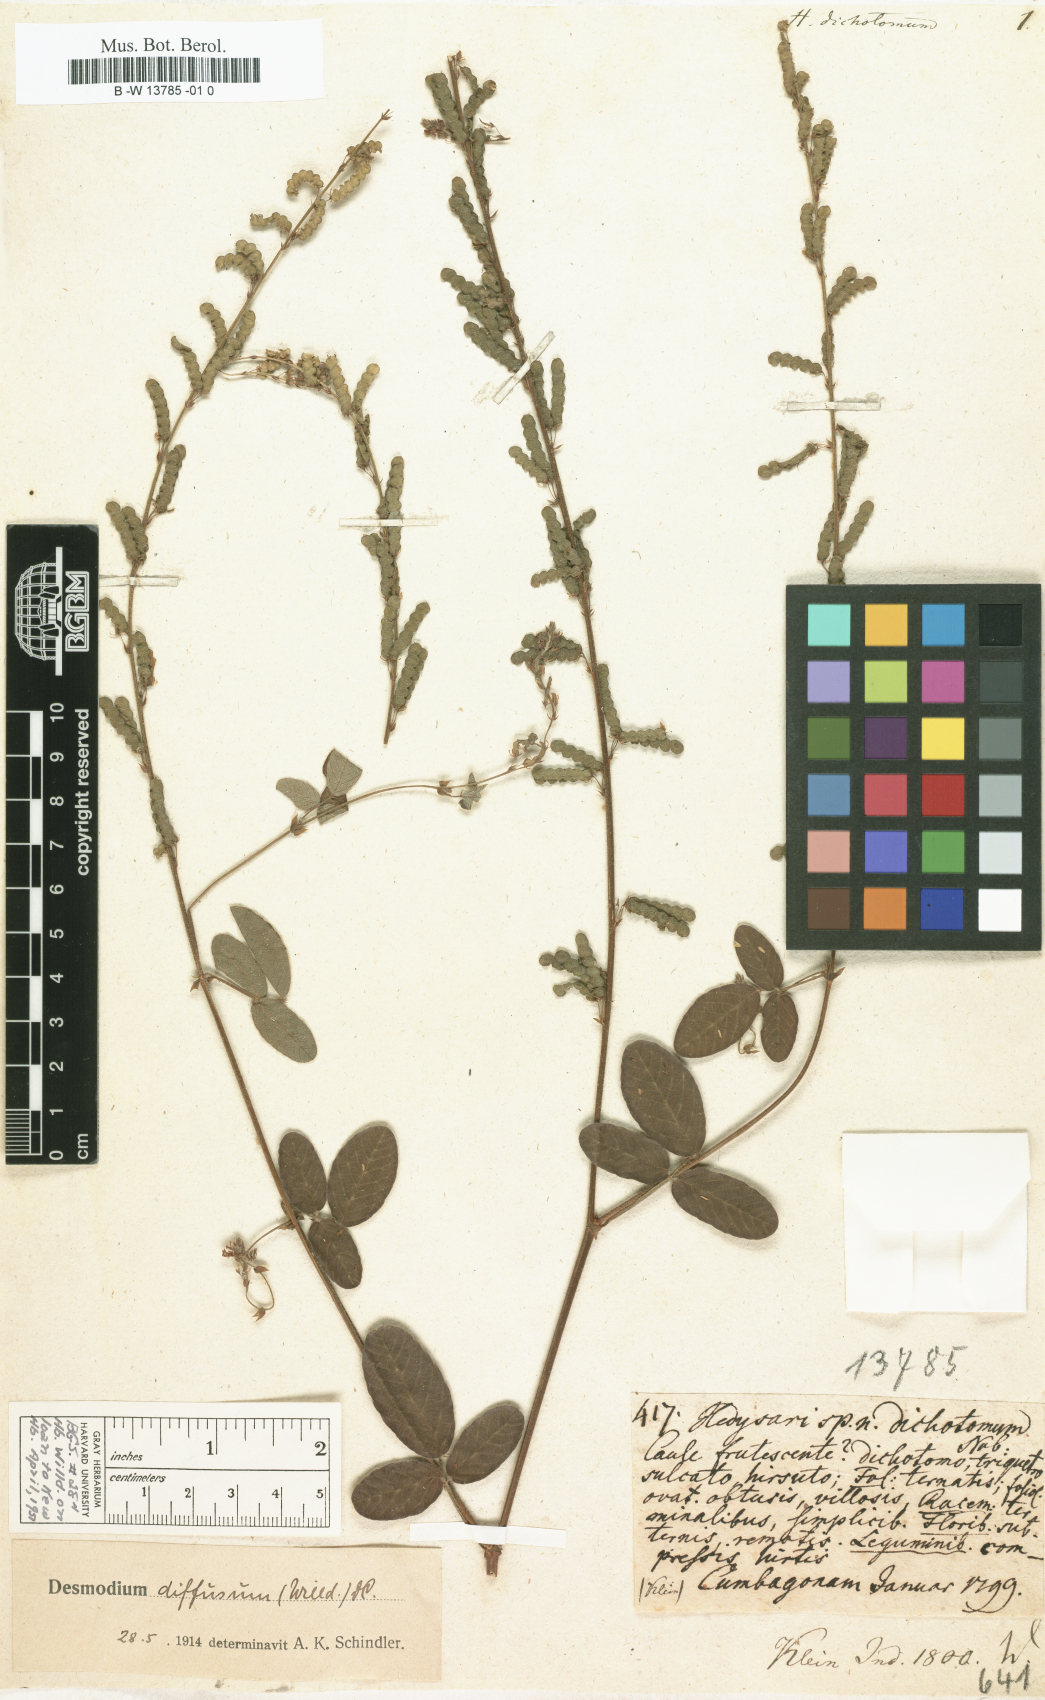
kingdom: Plantae
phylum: Tracheophyta
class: Magnoliopsida
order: Fabales
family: Fabaceae
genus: Bouffordia
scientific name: Bouffordia dichotoma
